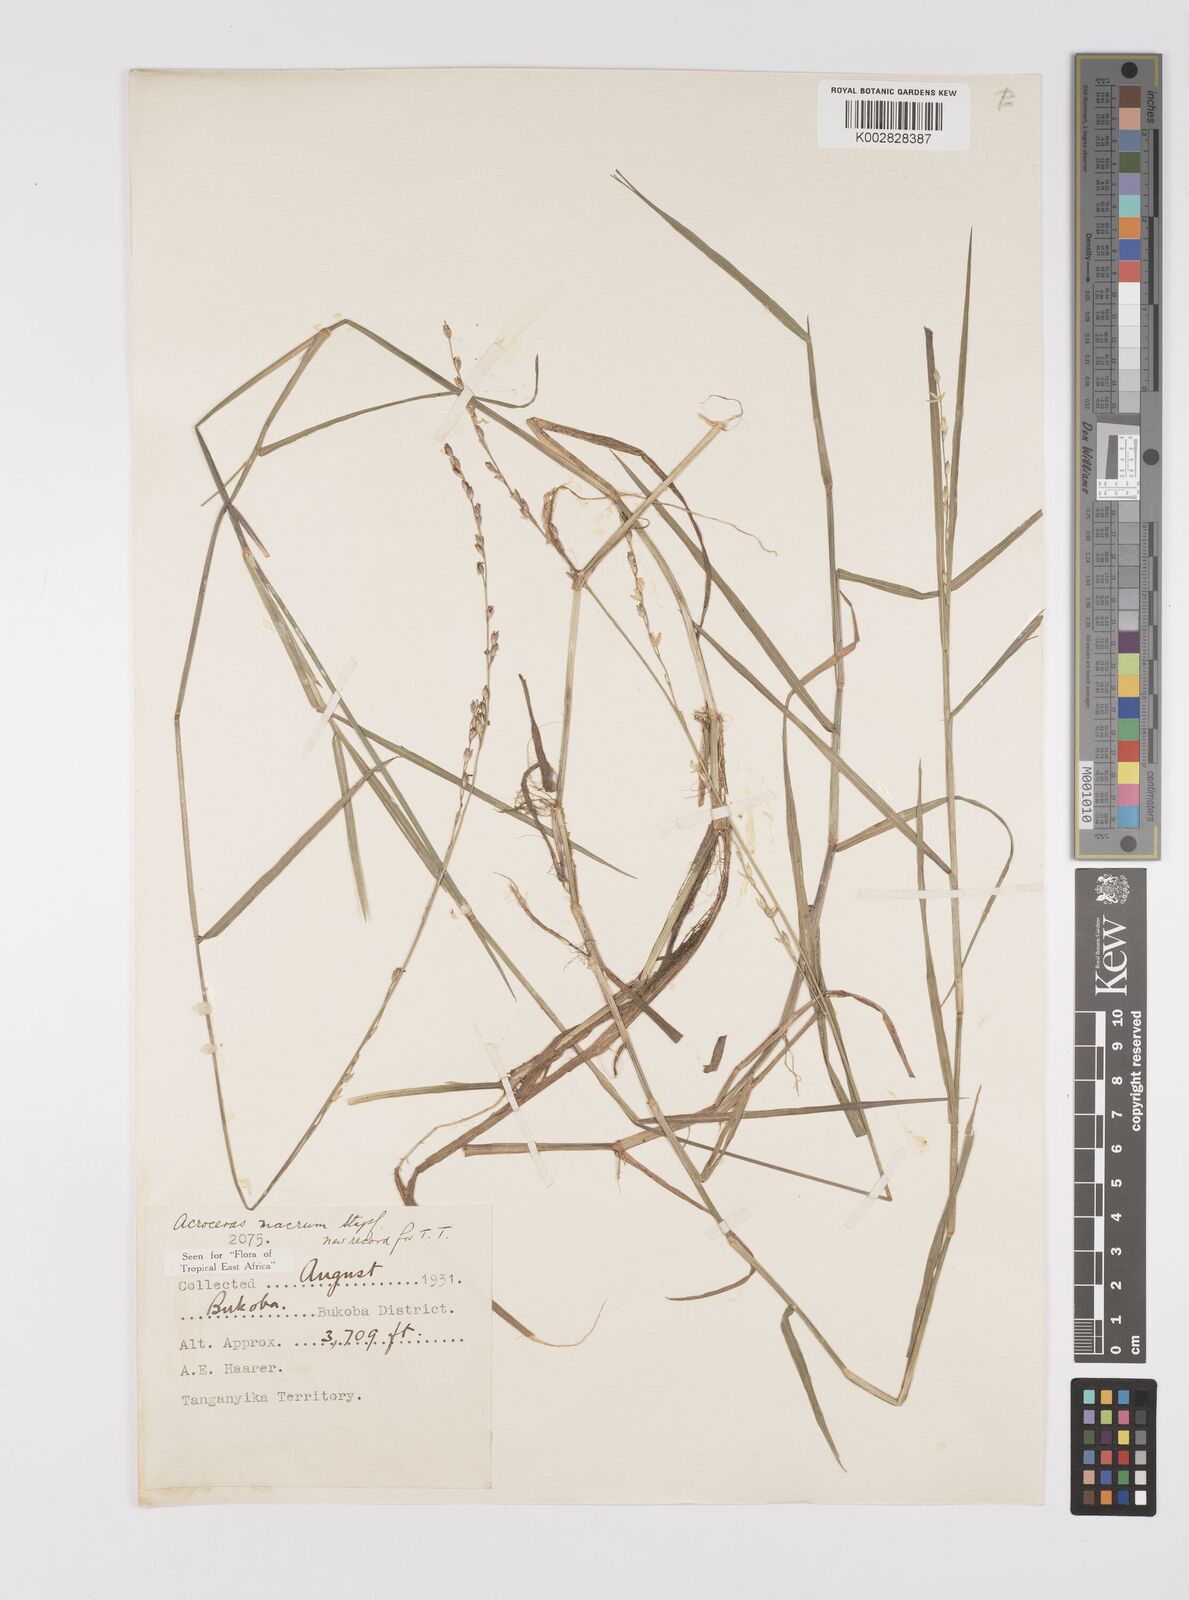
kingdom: Plantae
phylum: Tracheophyta
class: Liliopsida
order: Poales
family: Poaceae
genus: Acroceras
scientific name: Acroceras macrum
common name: Nyl grass
